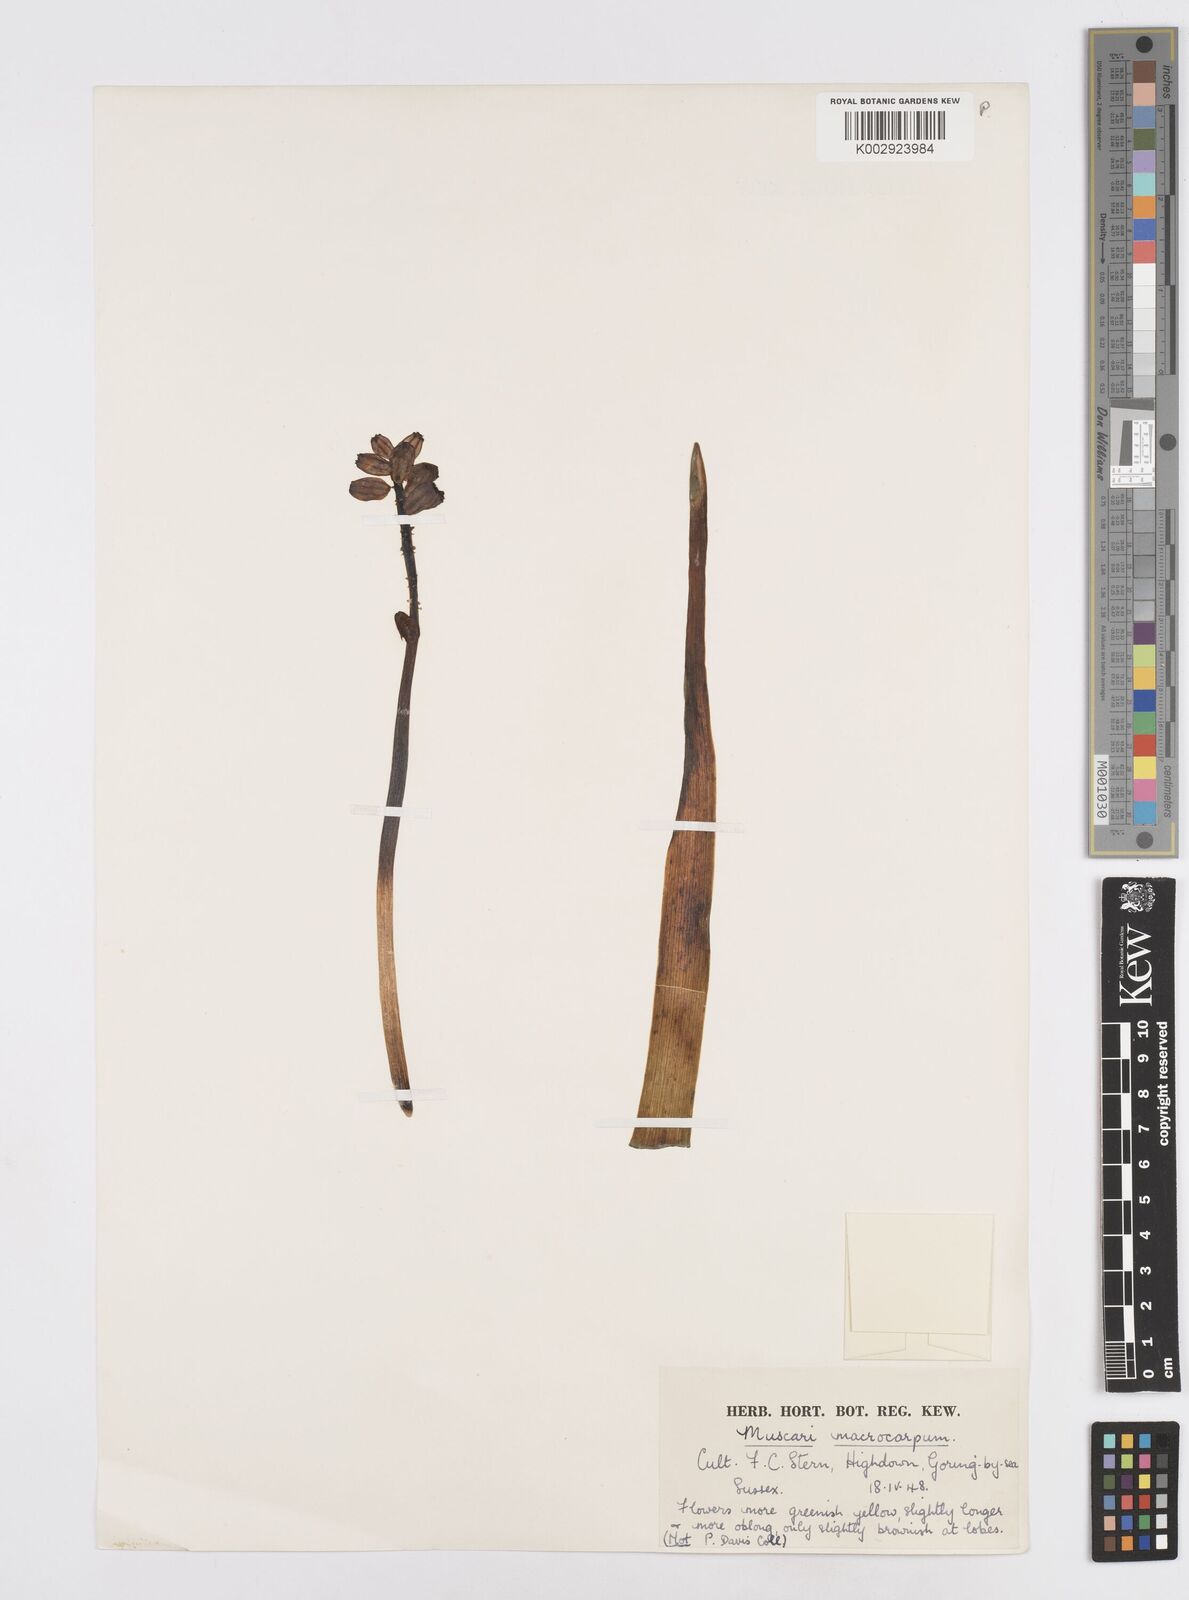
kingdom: Plantae
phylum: Tracheophyta
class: Liliopsida
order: Asparagales
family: Asparagaceae
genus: Muscarimia
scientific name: Muscarimia macrocarpa
